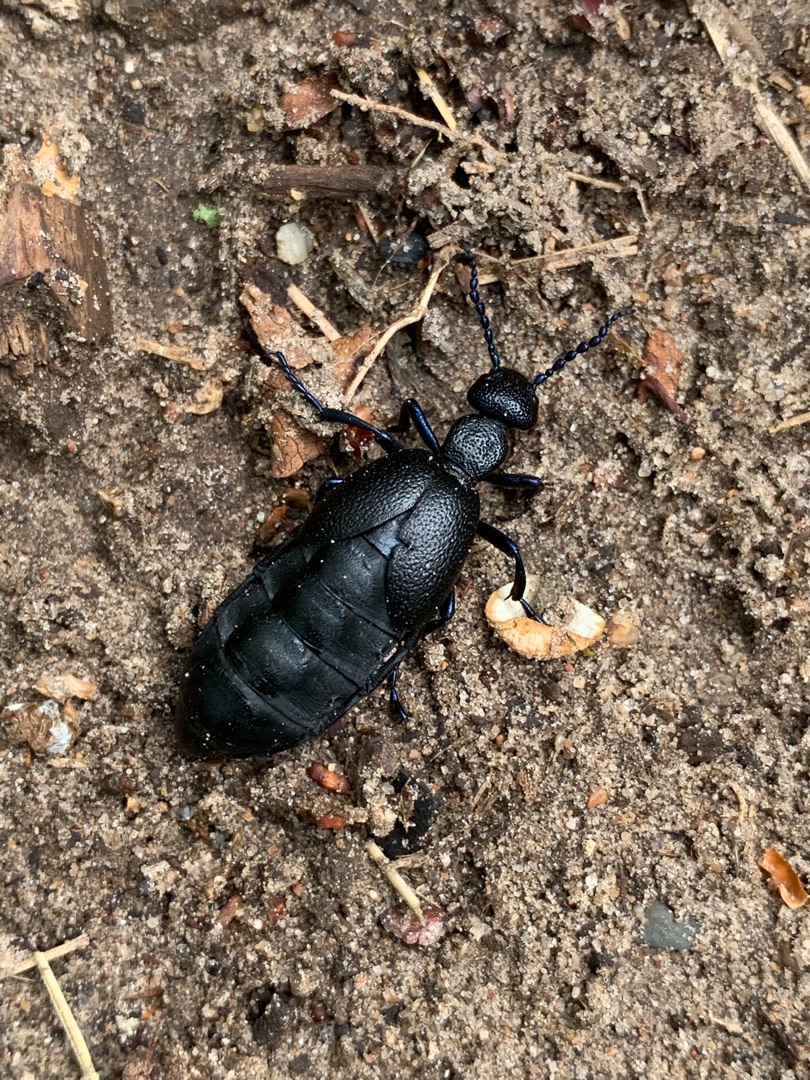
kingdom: Animalia
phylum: Arthropoda
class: Insecta
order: Coleoptera
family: Meloidae
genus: Meloe
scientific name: Meloe proscarabaeus
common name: Sort oliebille
